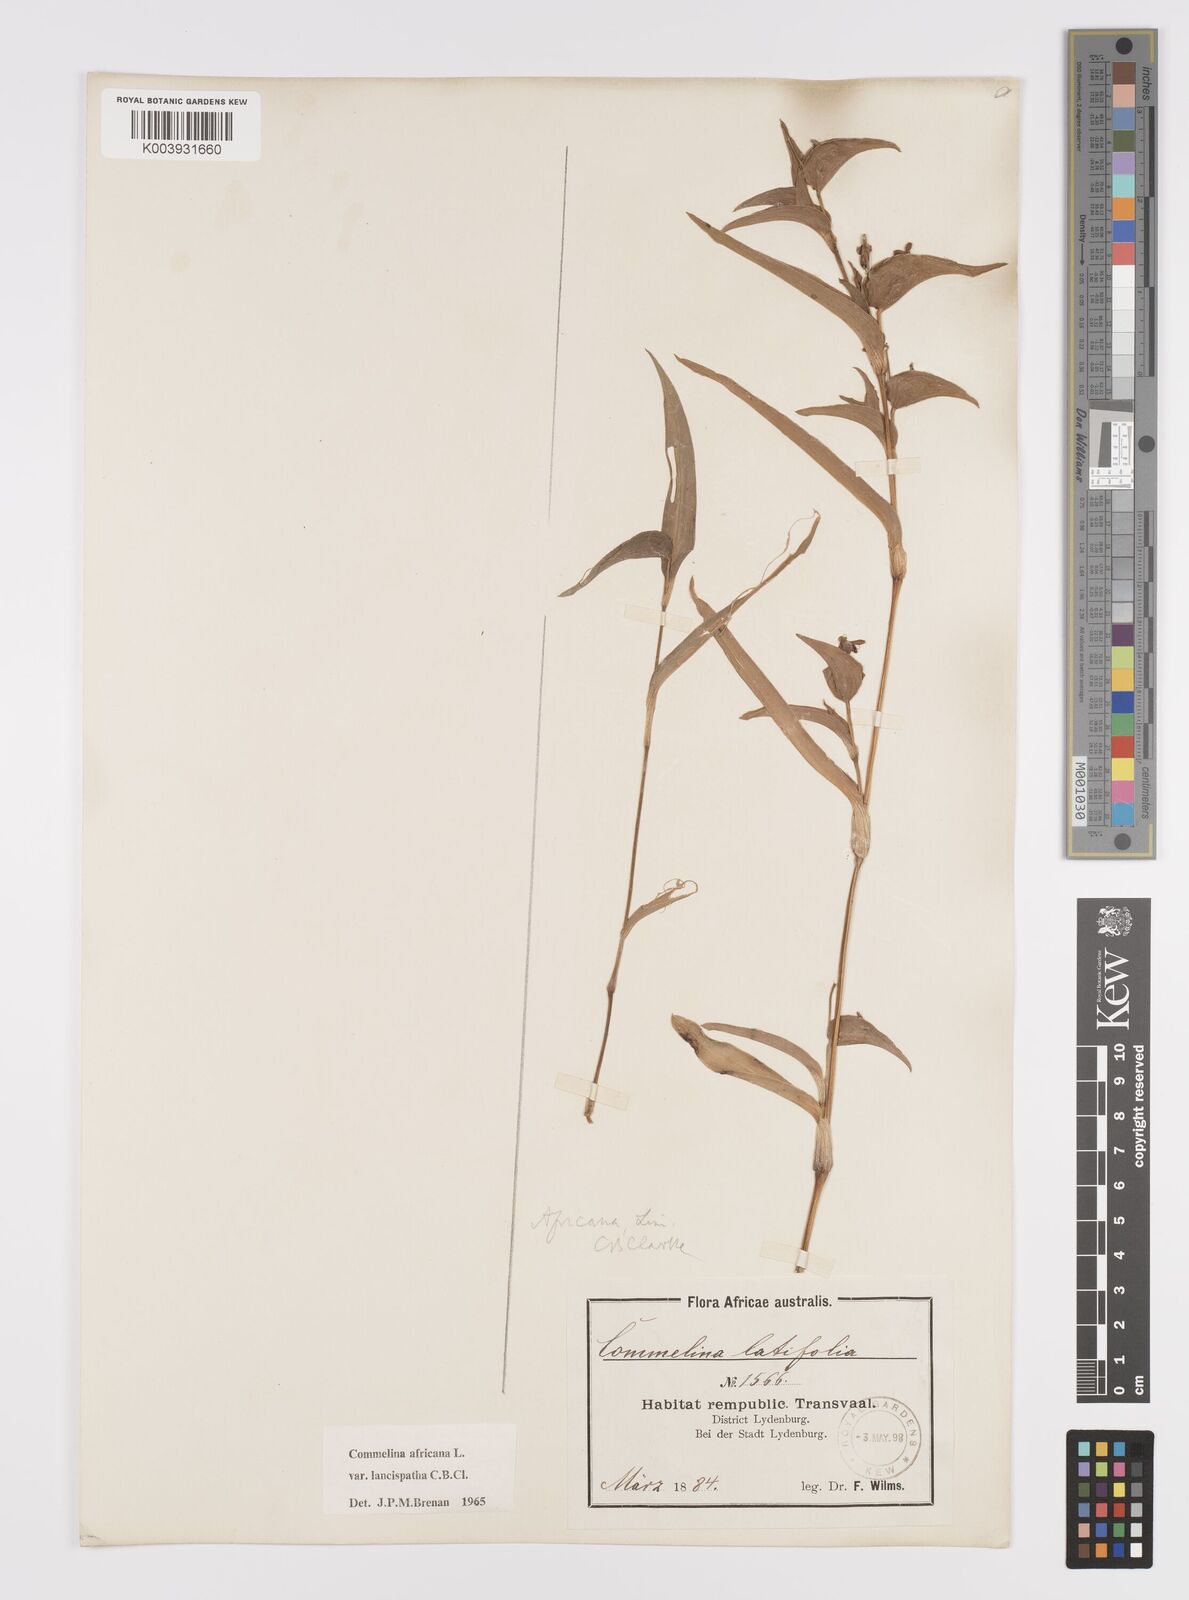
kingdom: Plantae
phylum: Tracheophyta
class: Liliopsida
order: Commelinales
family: Commelinaceae
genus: Commelina
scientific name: Commelina africana
